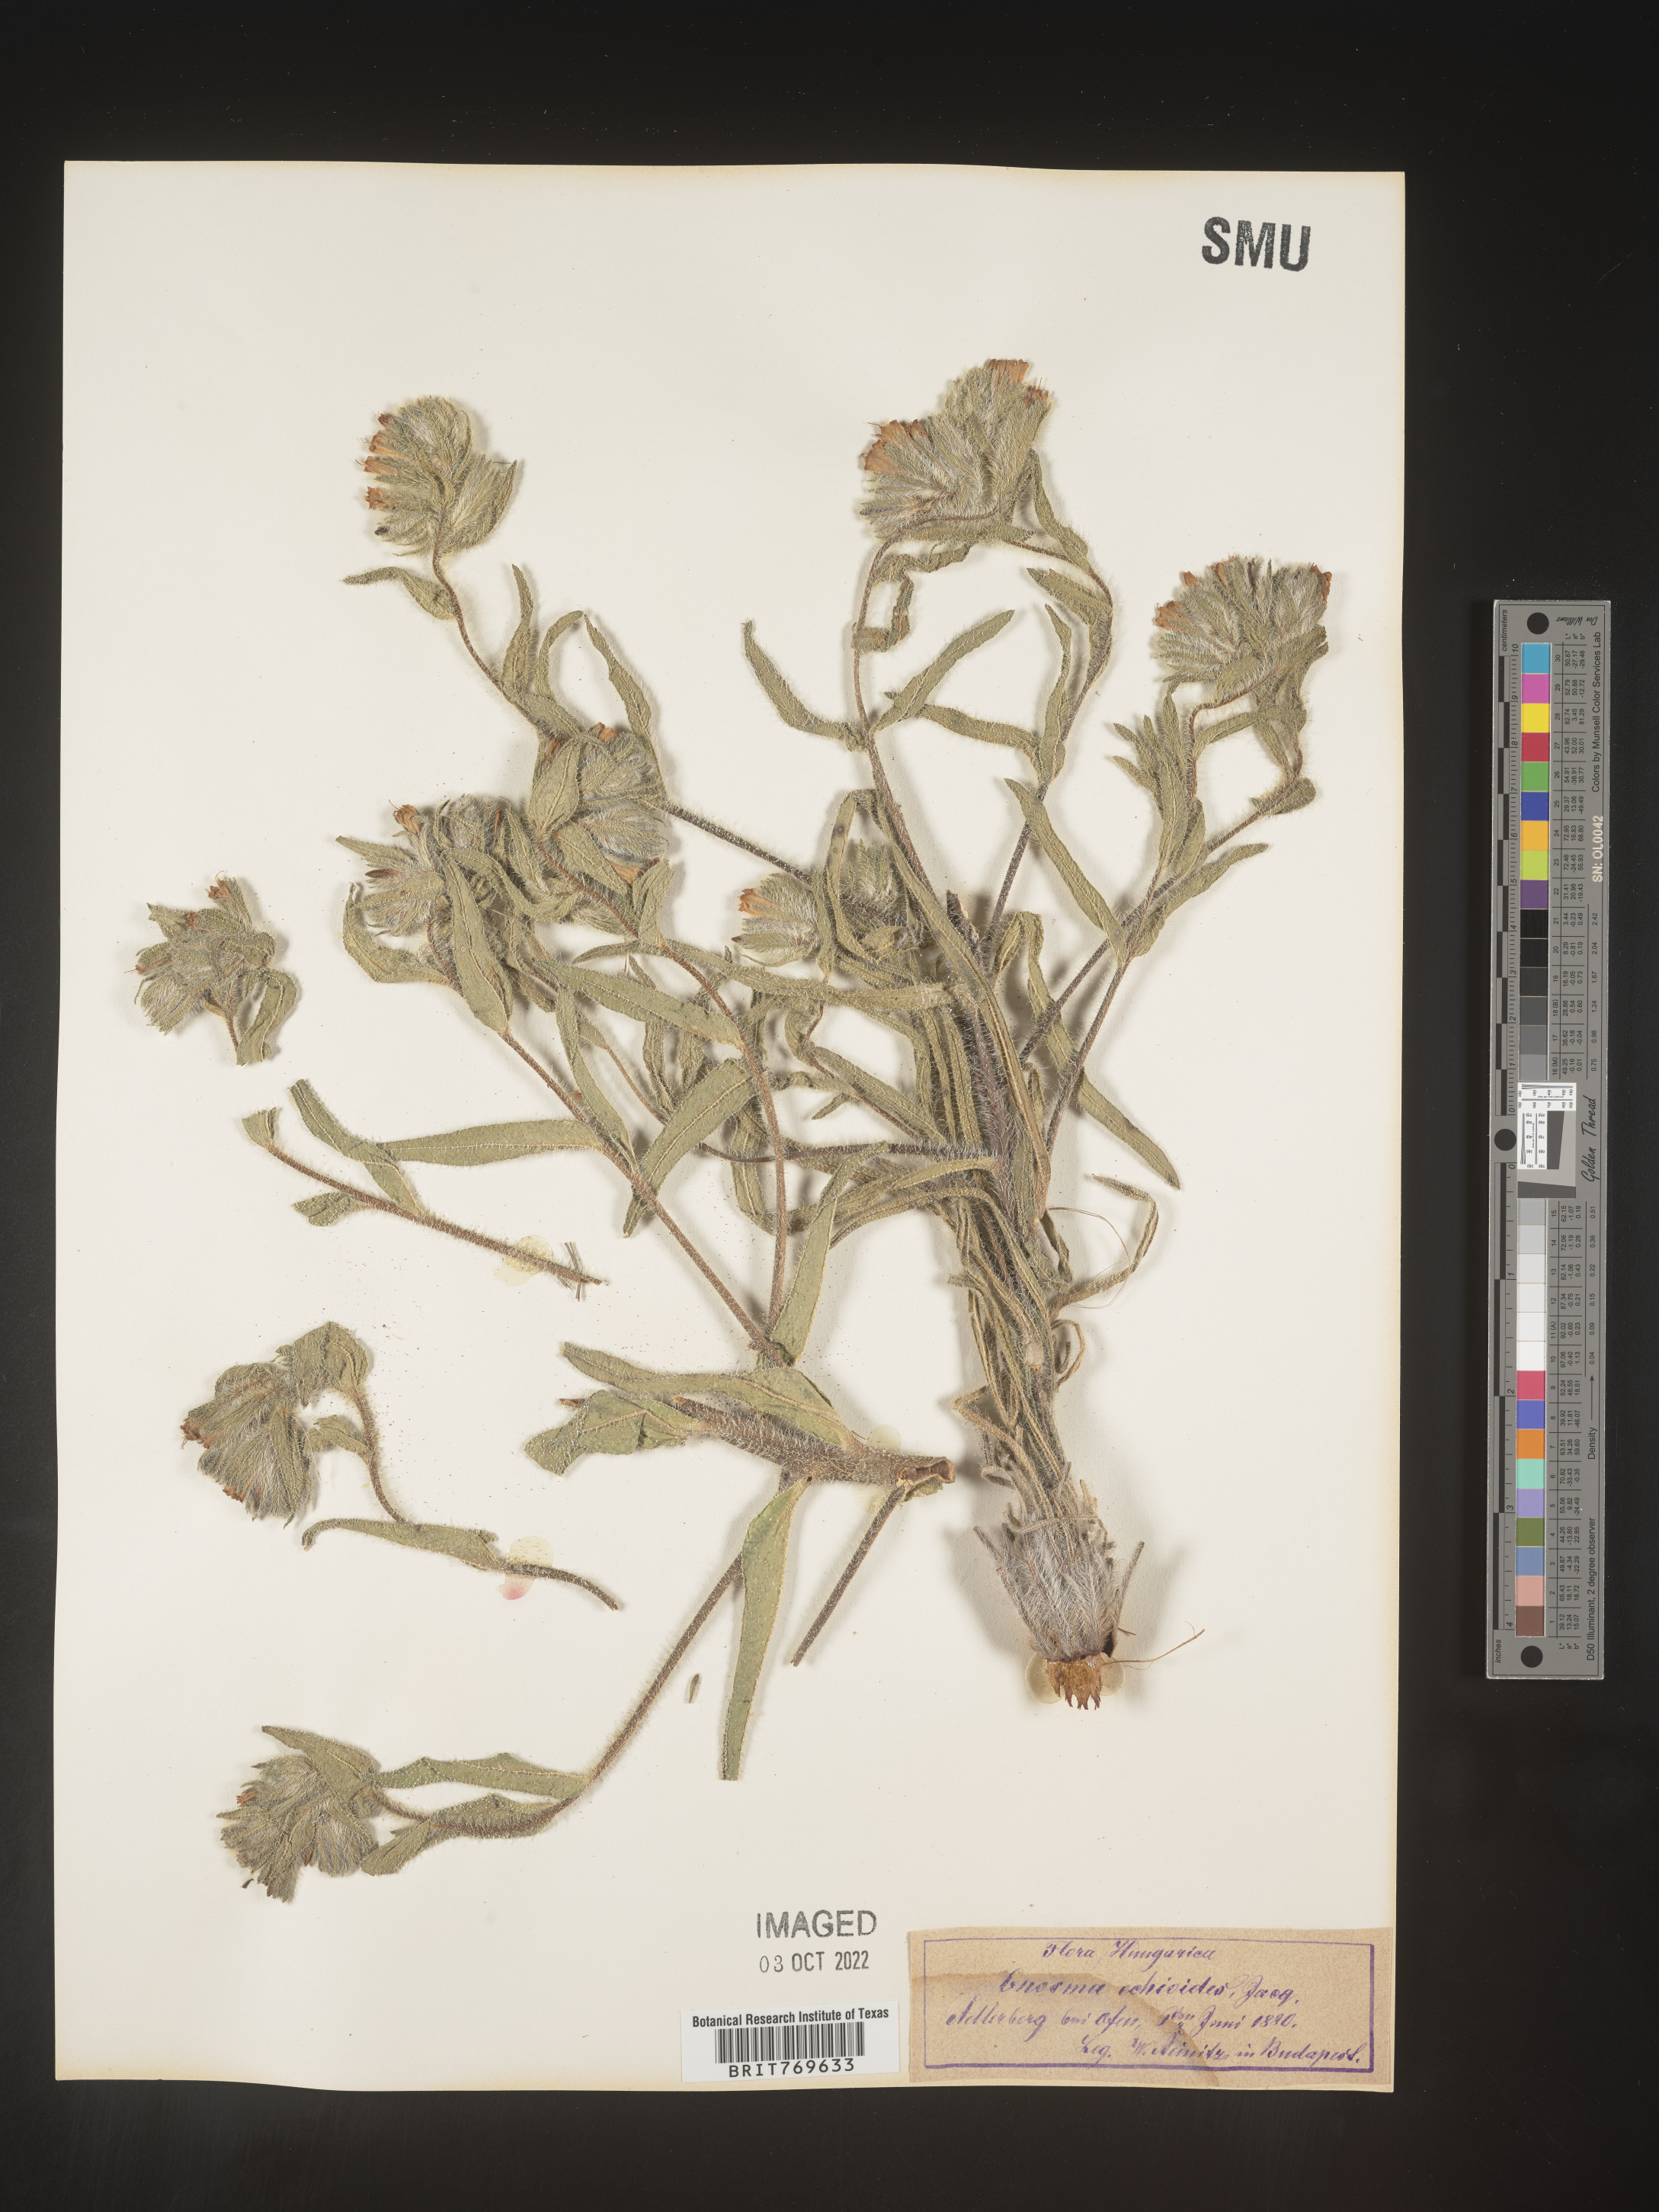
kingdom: Plantae
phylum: Tracheophyta
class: Magnoliopsida
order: Boraginales
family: Boraginaceae
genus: Onosma
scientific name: Onosma
